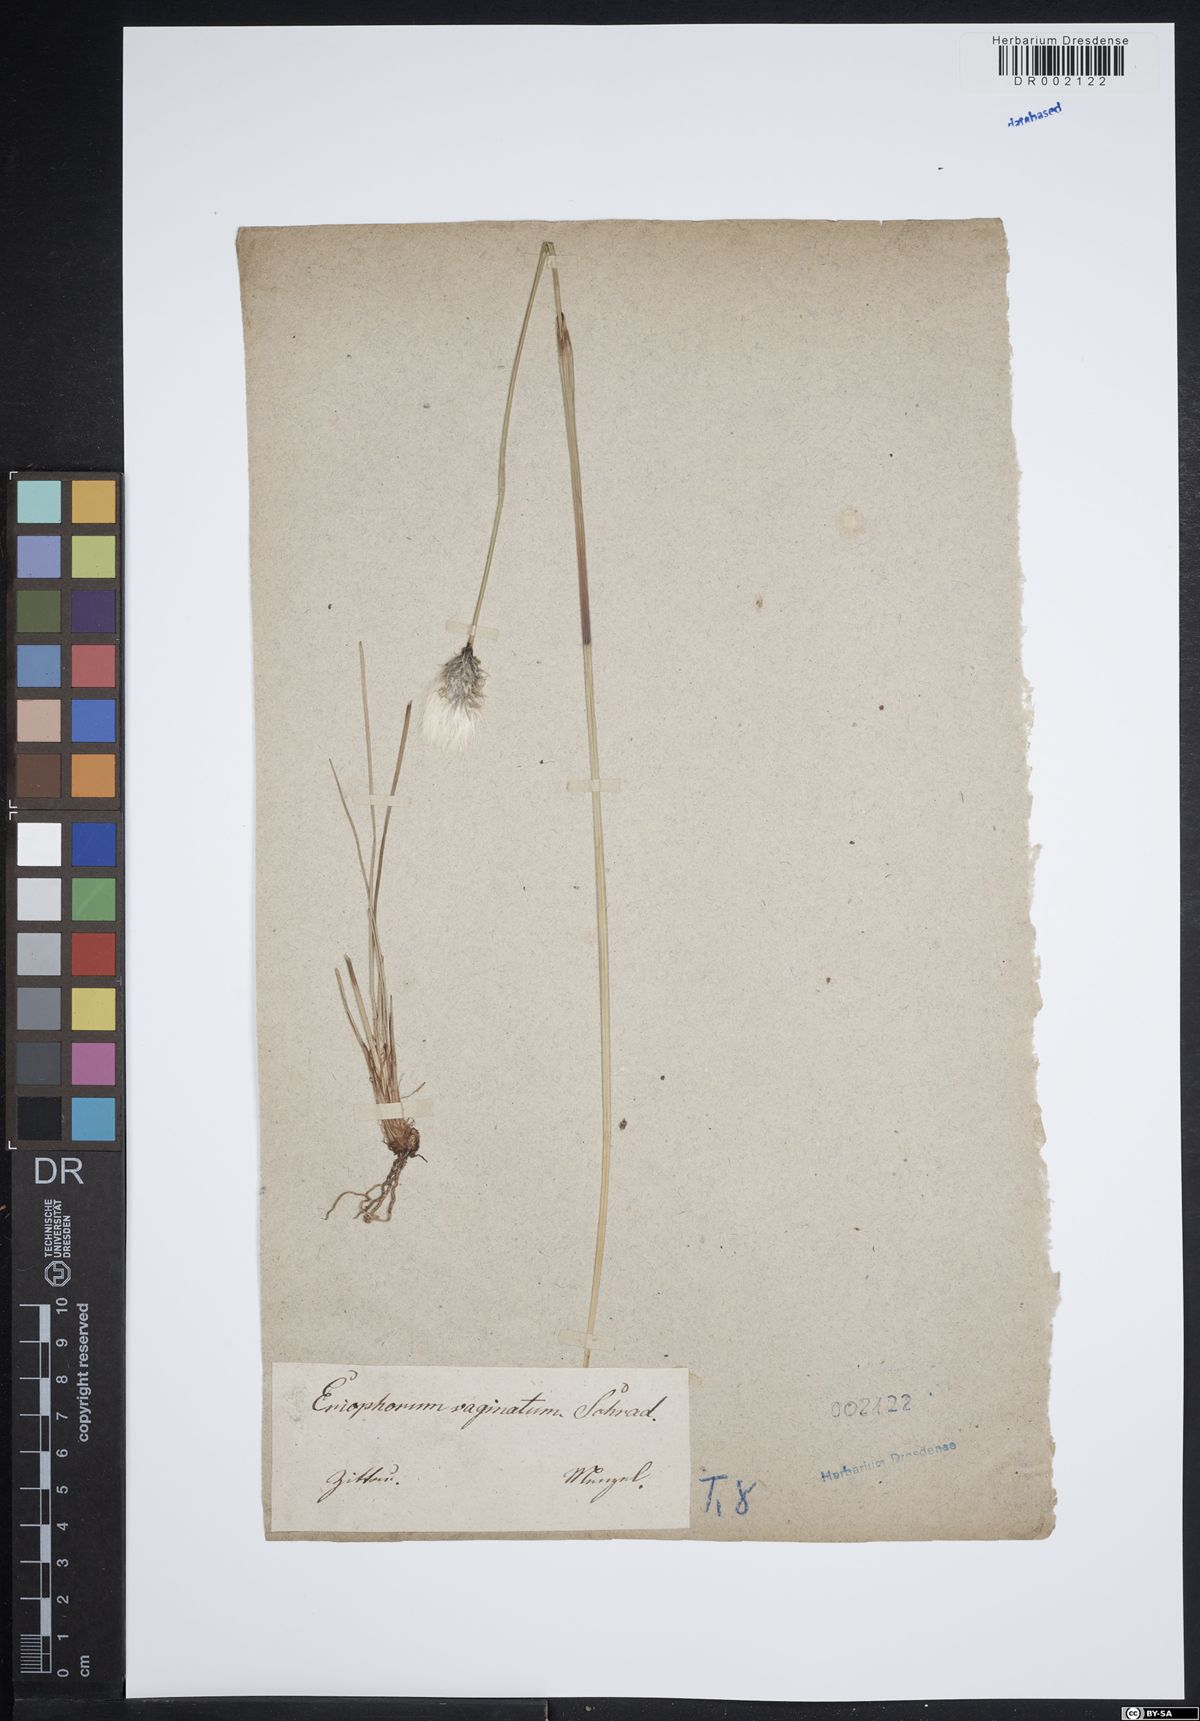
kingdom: Plantae
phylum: Tracheophyta
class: Liliopsida
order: Poales
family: Cyperaceae
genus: Eriophorum
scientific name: Eriophorum vaginatum
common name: Hare's-tail cottongrass
